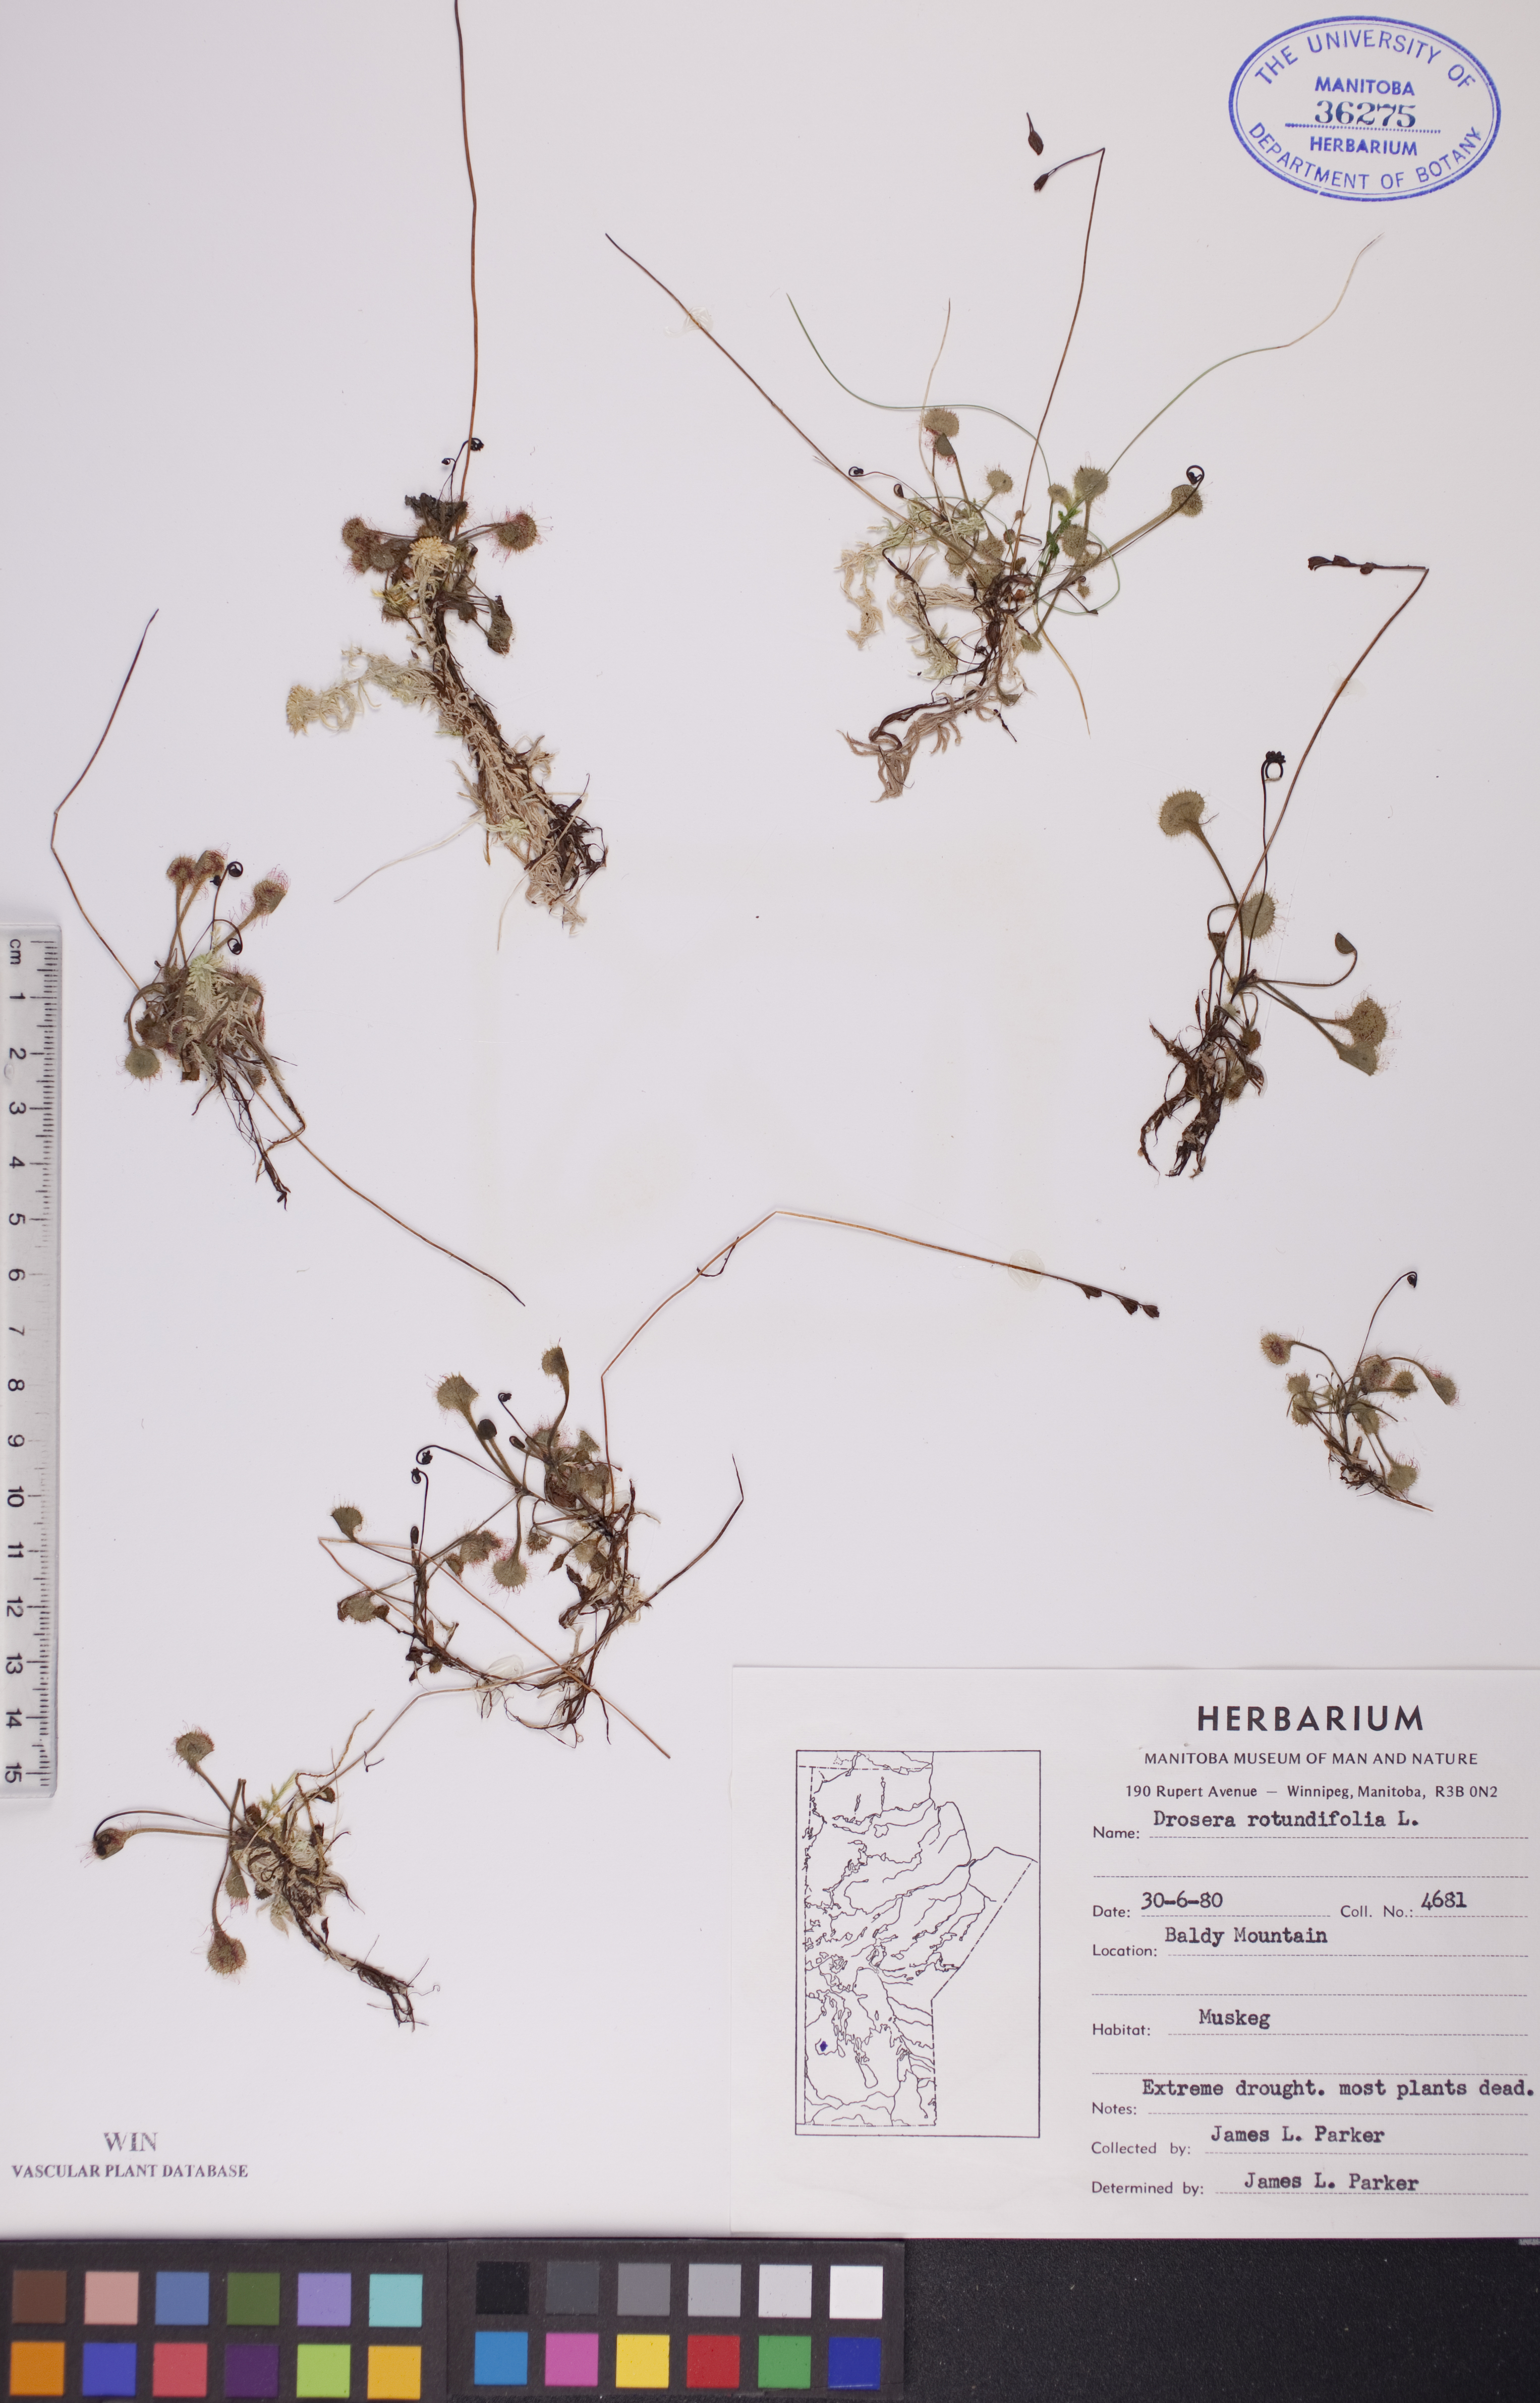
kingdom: Plantae
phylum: Tracheophyta
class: Magnoliopsida
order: Caryophyllales
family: Droseraceae
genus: Drosera
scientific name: Drosera rotundifolia
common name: Round-leaved sundew
